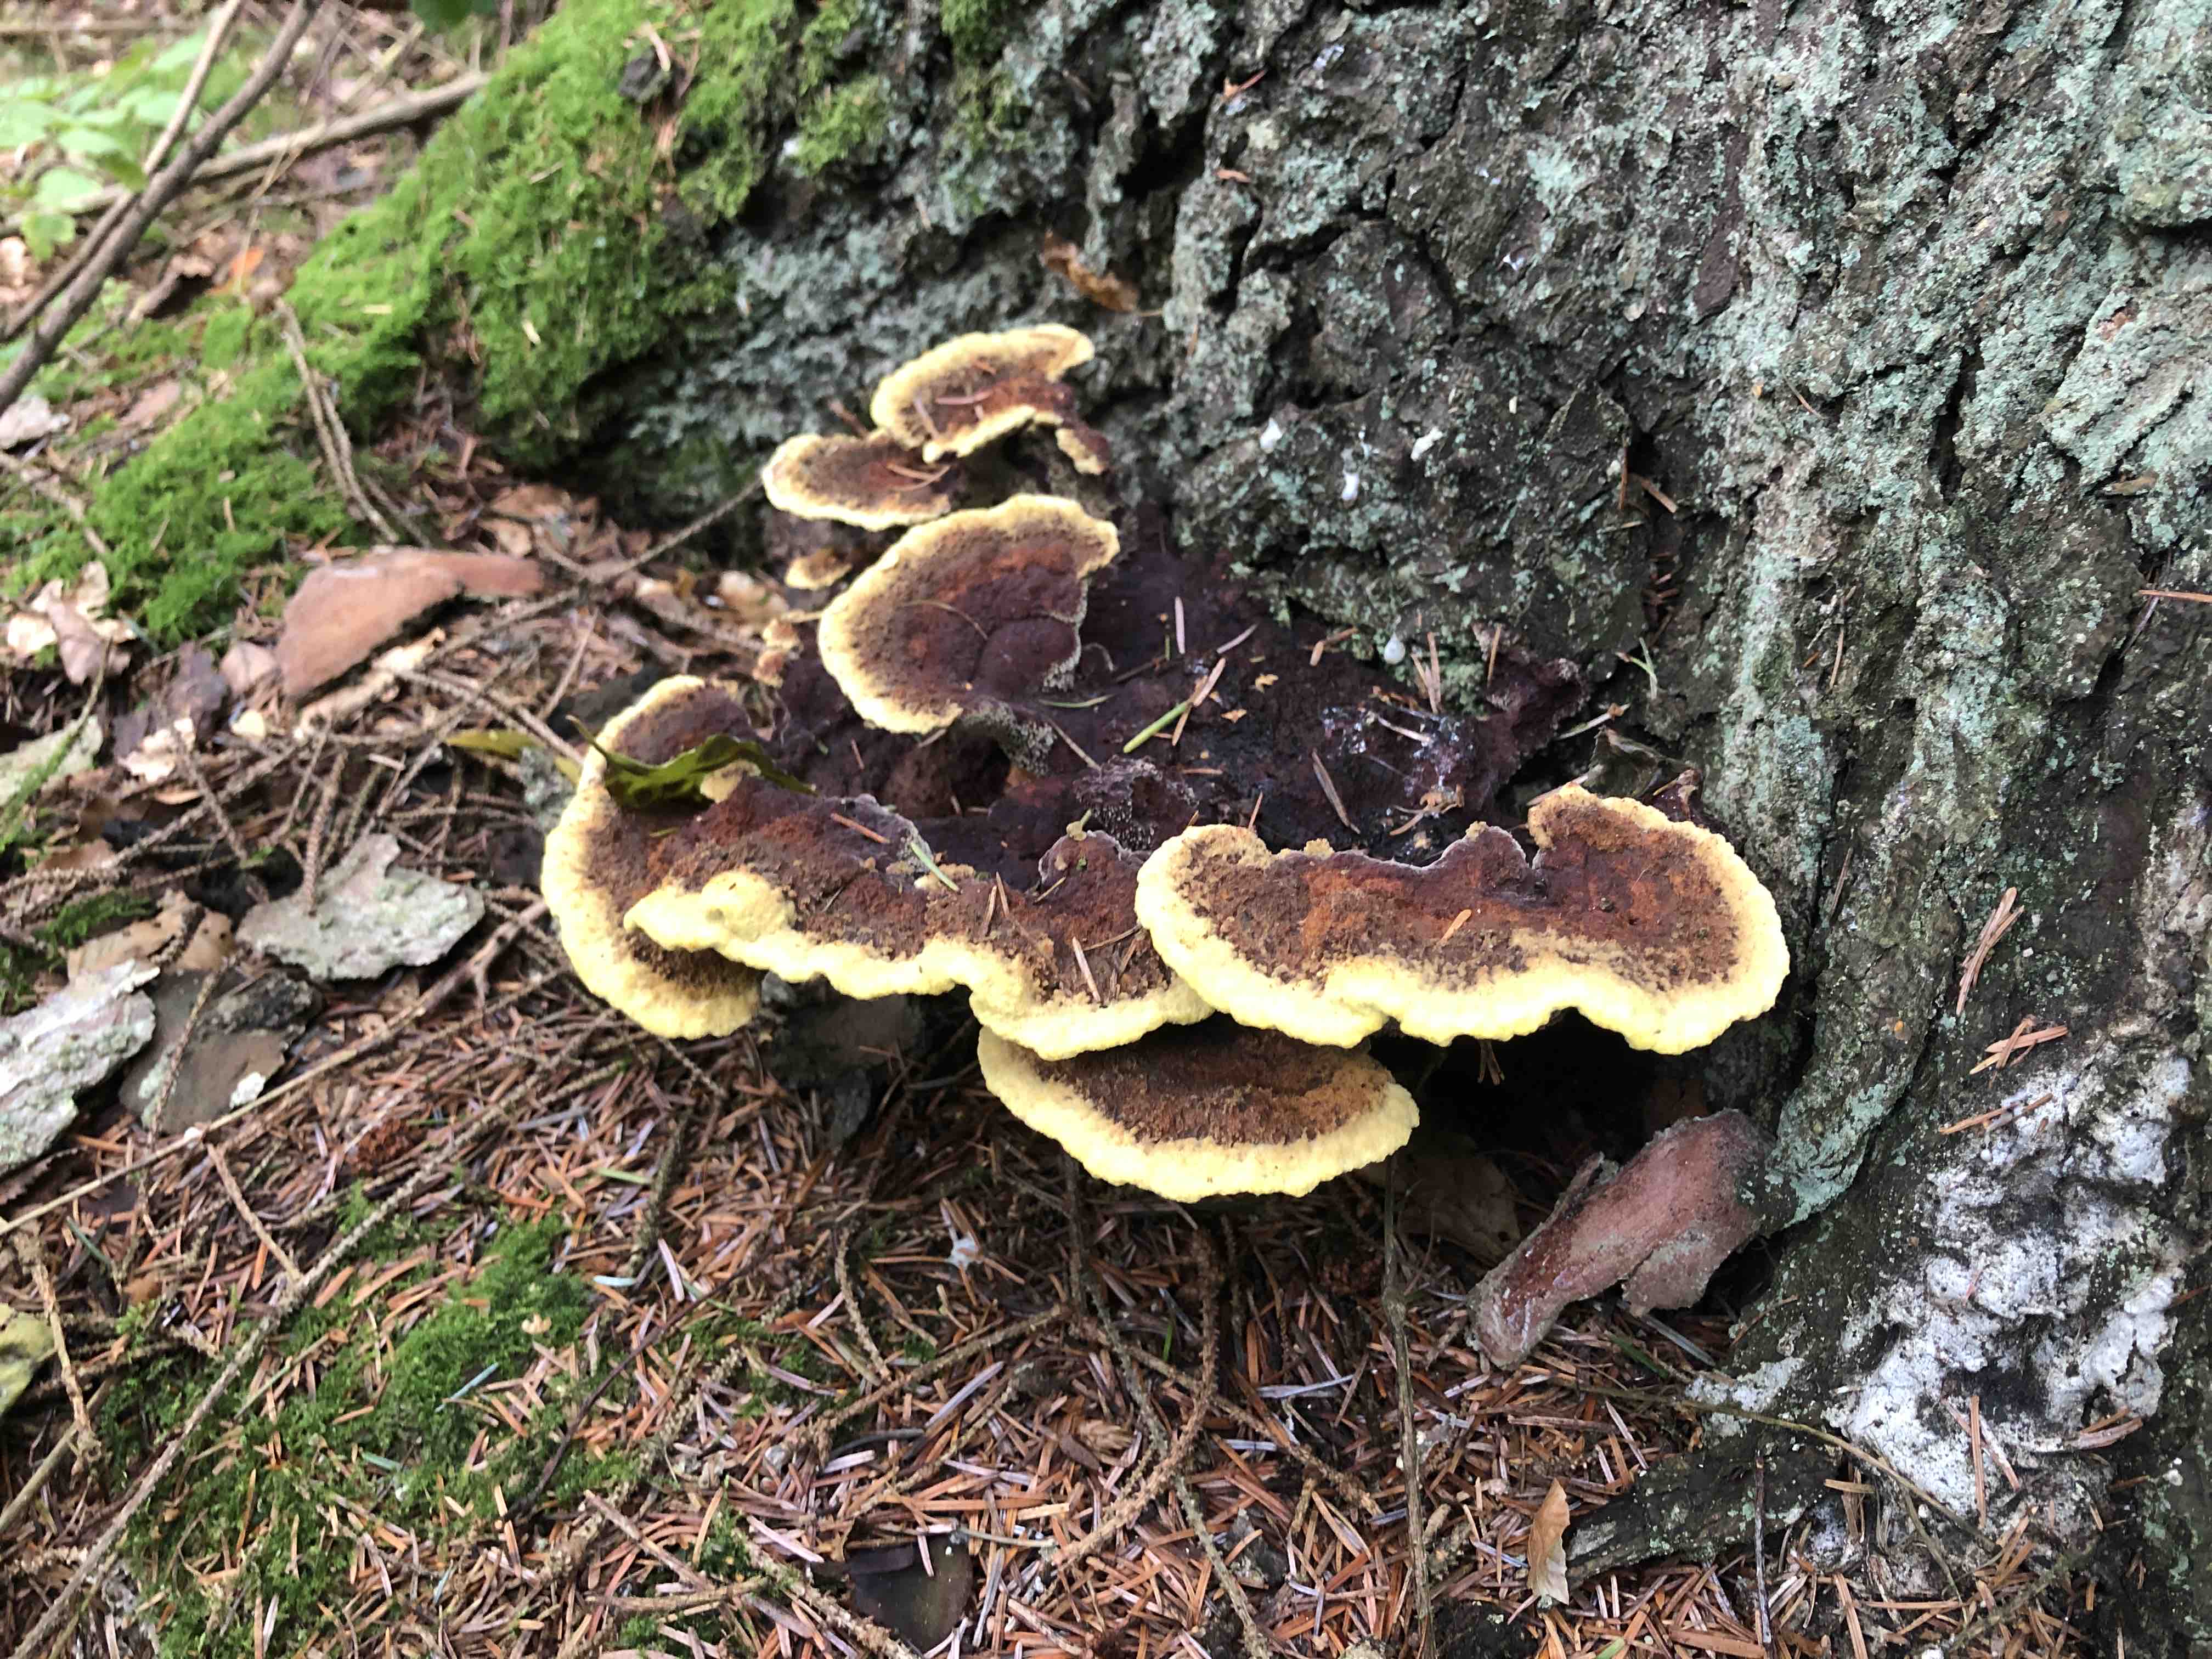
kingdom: Fungi
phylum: Basidiomycota
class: Agaricomycetes
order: Polyporales
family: Laetiporaceae
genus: Phaeolus
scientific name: Phaeolus schweinitzii
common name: brunporesvamp
